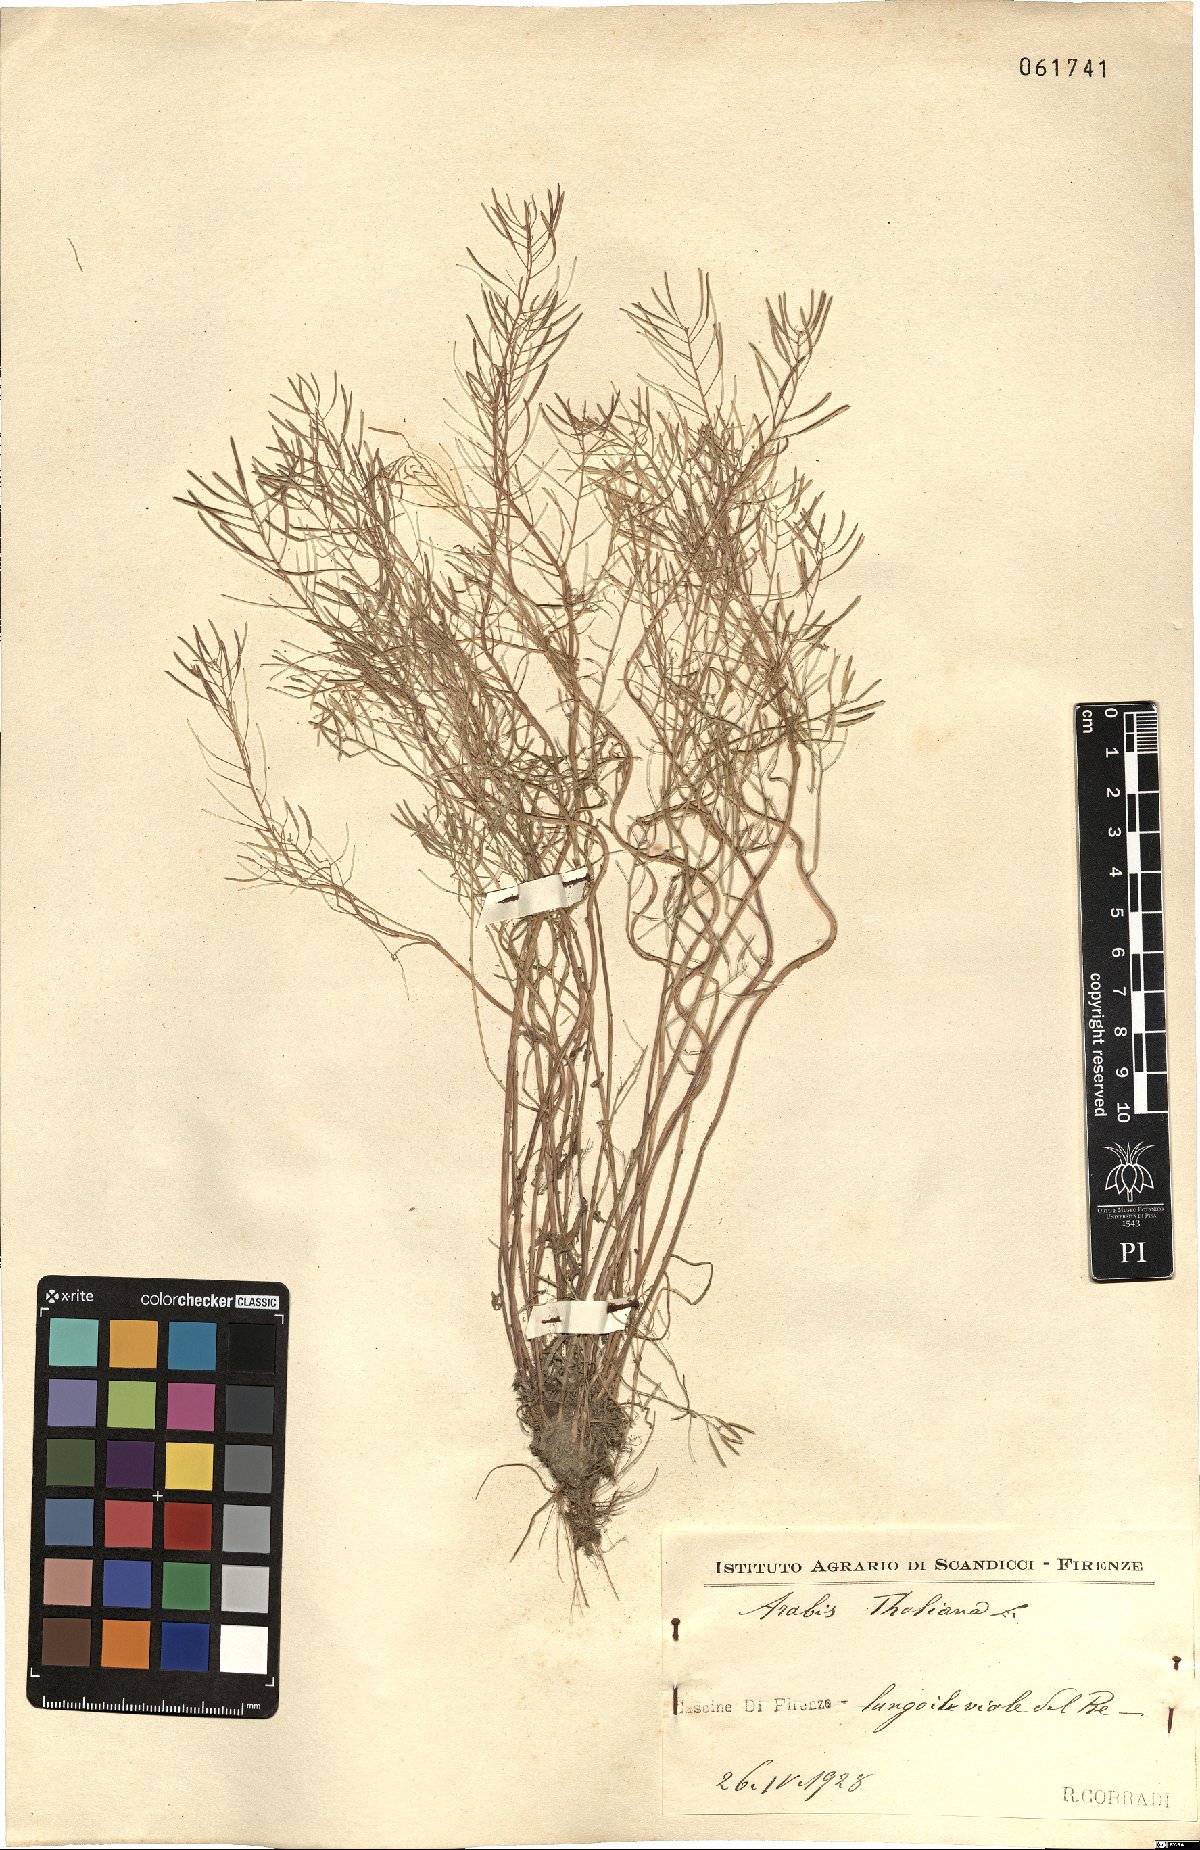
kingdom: Plantae
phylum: Tracheophyta
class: Magnoliopsida
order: Brassicales
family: Brassicaceae
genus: Arabidopsis
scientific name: Arabidopsis thaliana
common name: Thale cress
